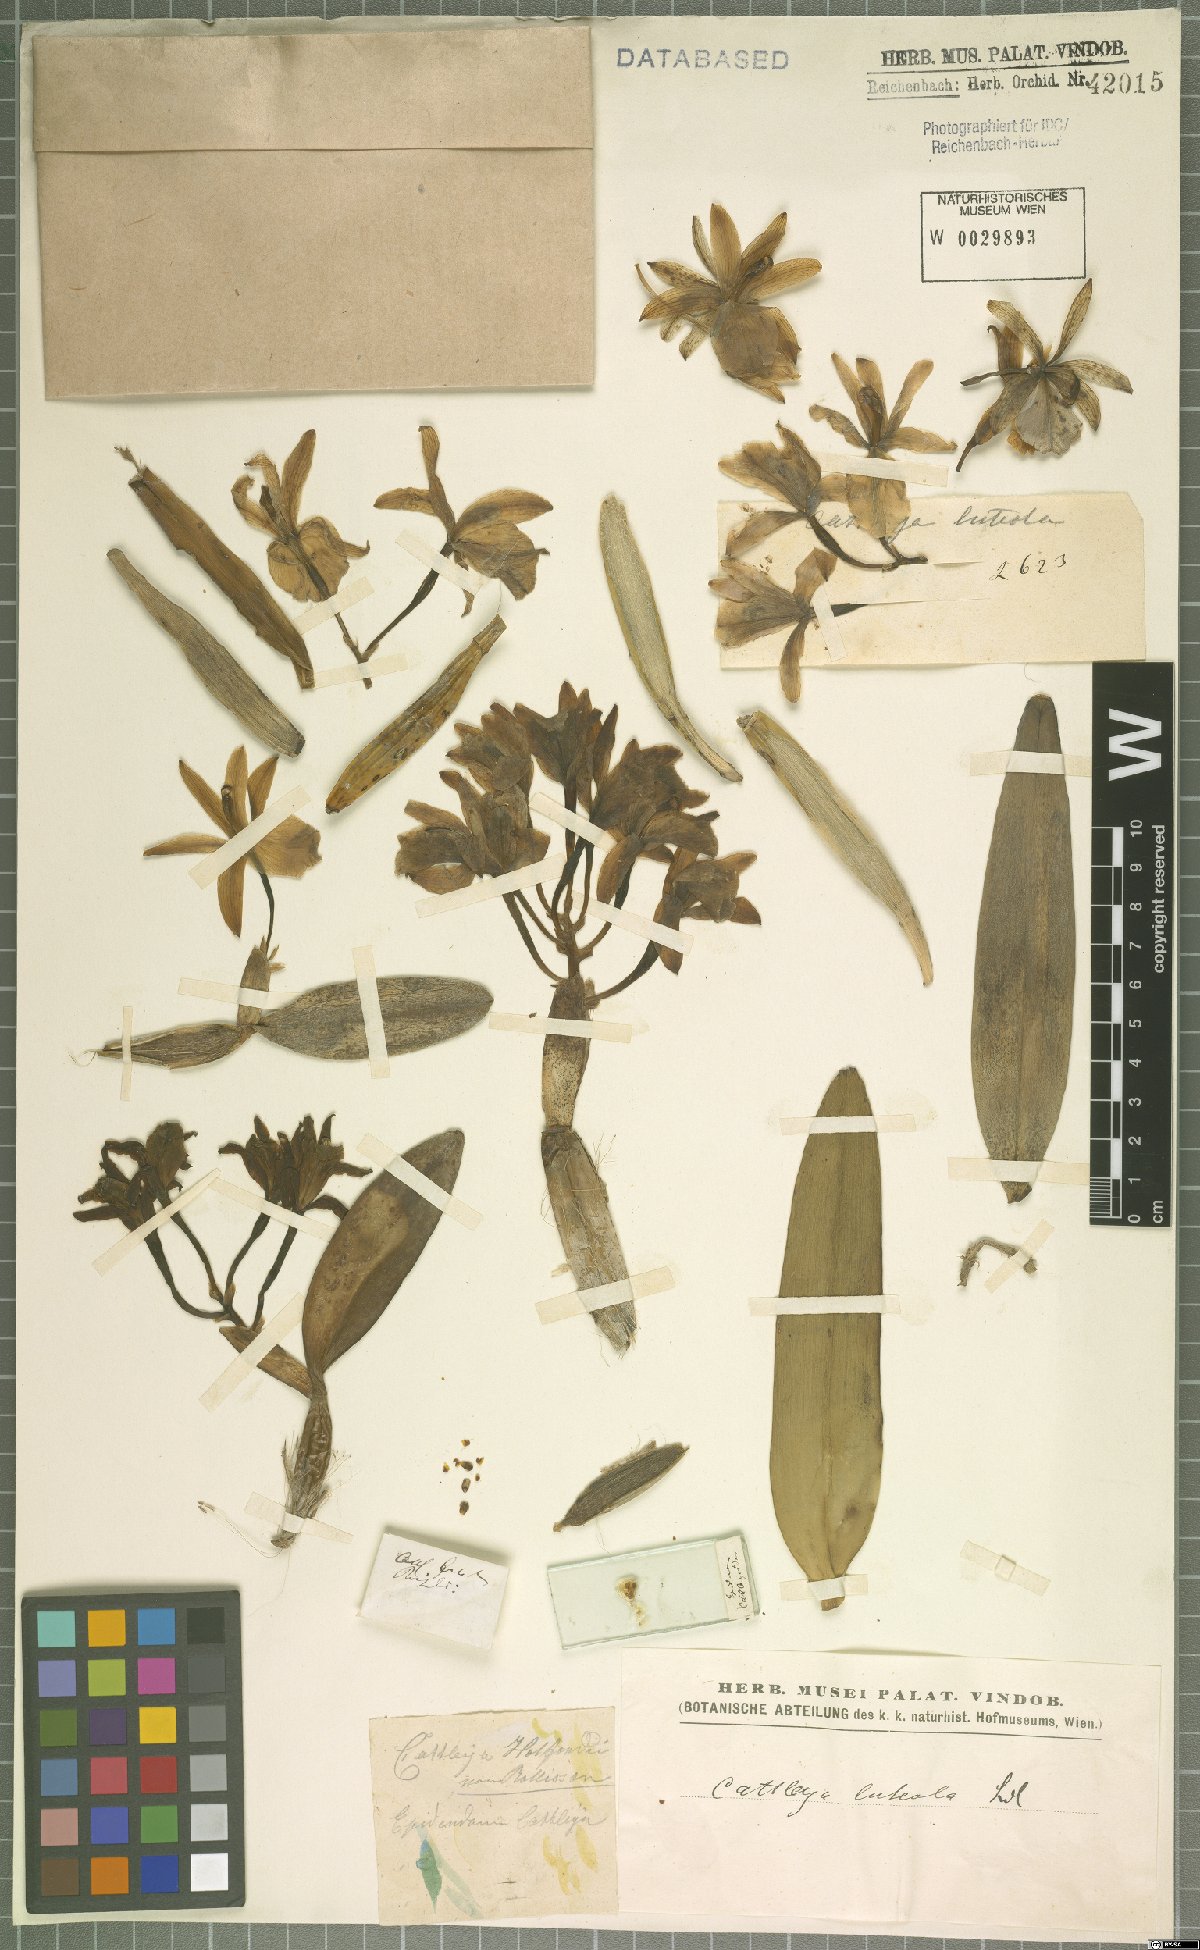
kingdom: Plantae
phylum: Tracheophyta
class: Liliopsida
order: Asparagales
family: Orchidaceae
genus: Cattleya
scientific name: Cattleya luteola
